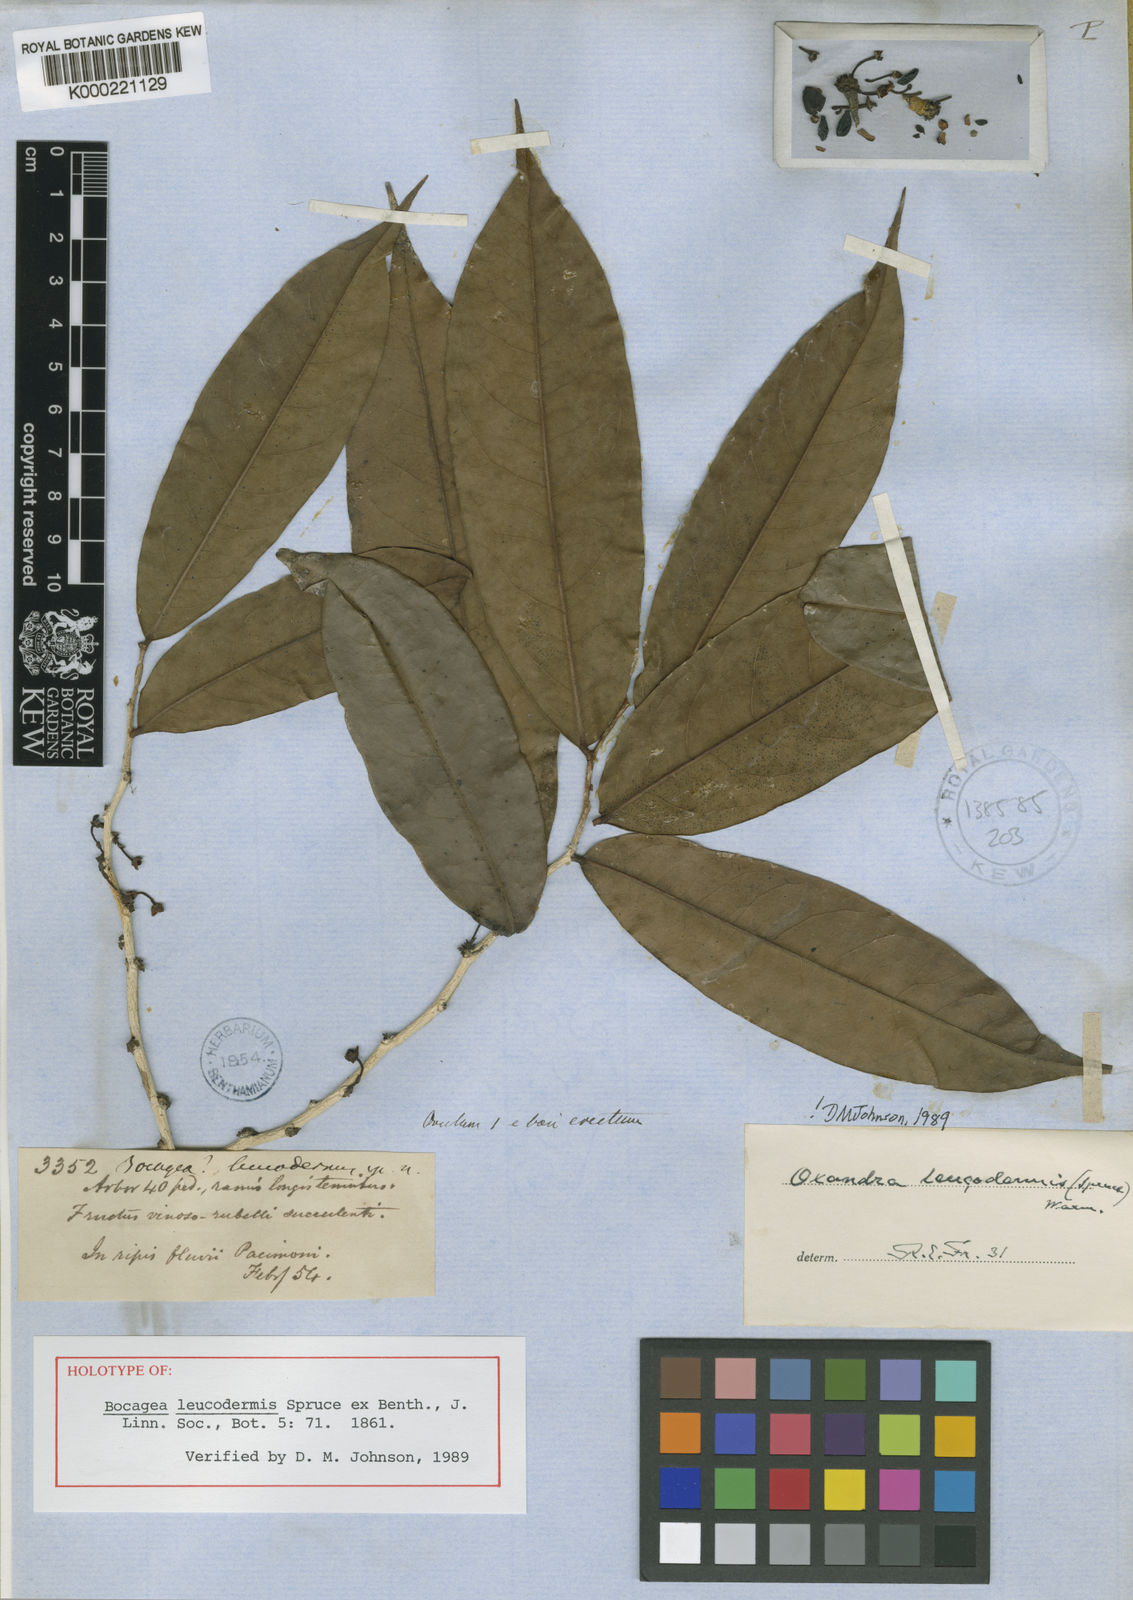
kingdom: Plantae
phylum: Tracheophyta
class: Magnoliopsida
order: Magnoliales
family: Annonaceae
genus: Oxandra
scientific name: Oxandra leucodermis
